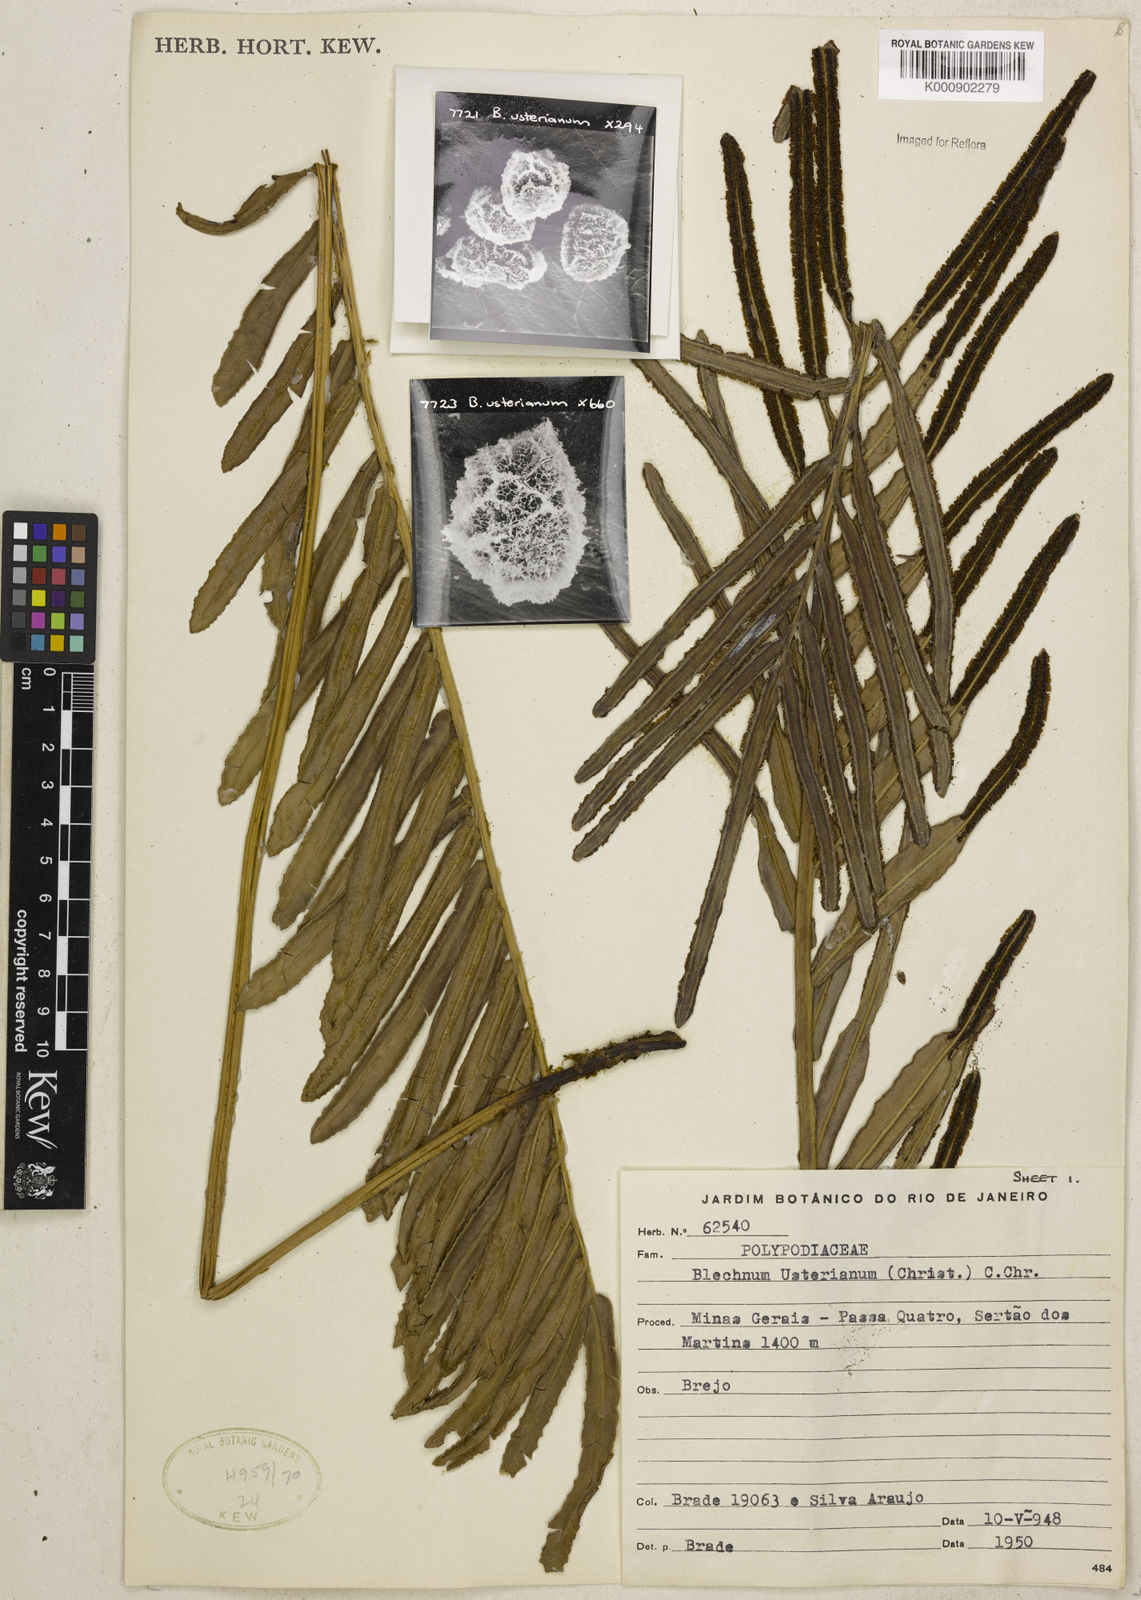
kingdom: Plantae
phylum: Tracheophyta
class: Polypodiopsida
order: Polypodiales
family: Blechnaceae
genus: Parablechnum
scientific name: Parablechnum usterianum
